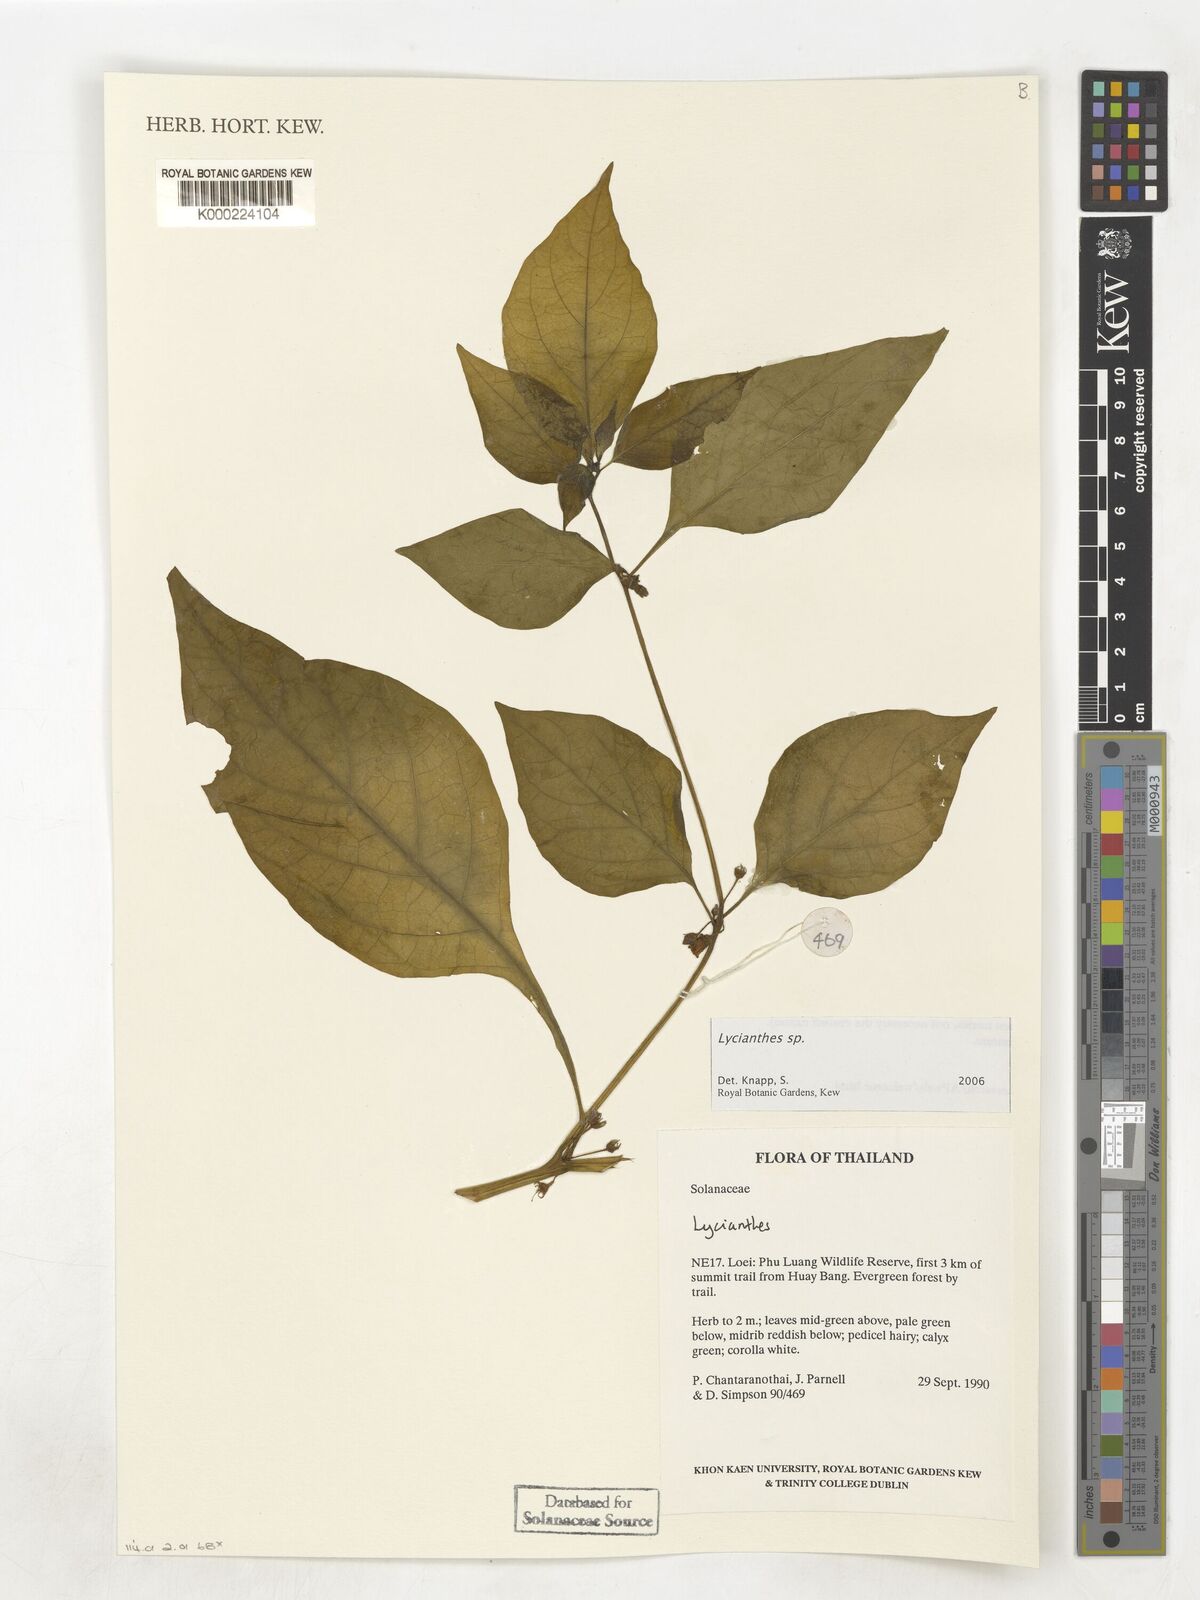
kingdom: Plantae
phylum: Tracheophyta
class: Magnoliopsida
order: Solanales
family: Solanaceae
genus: Lycianthes
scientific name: Lycianthes
